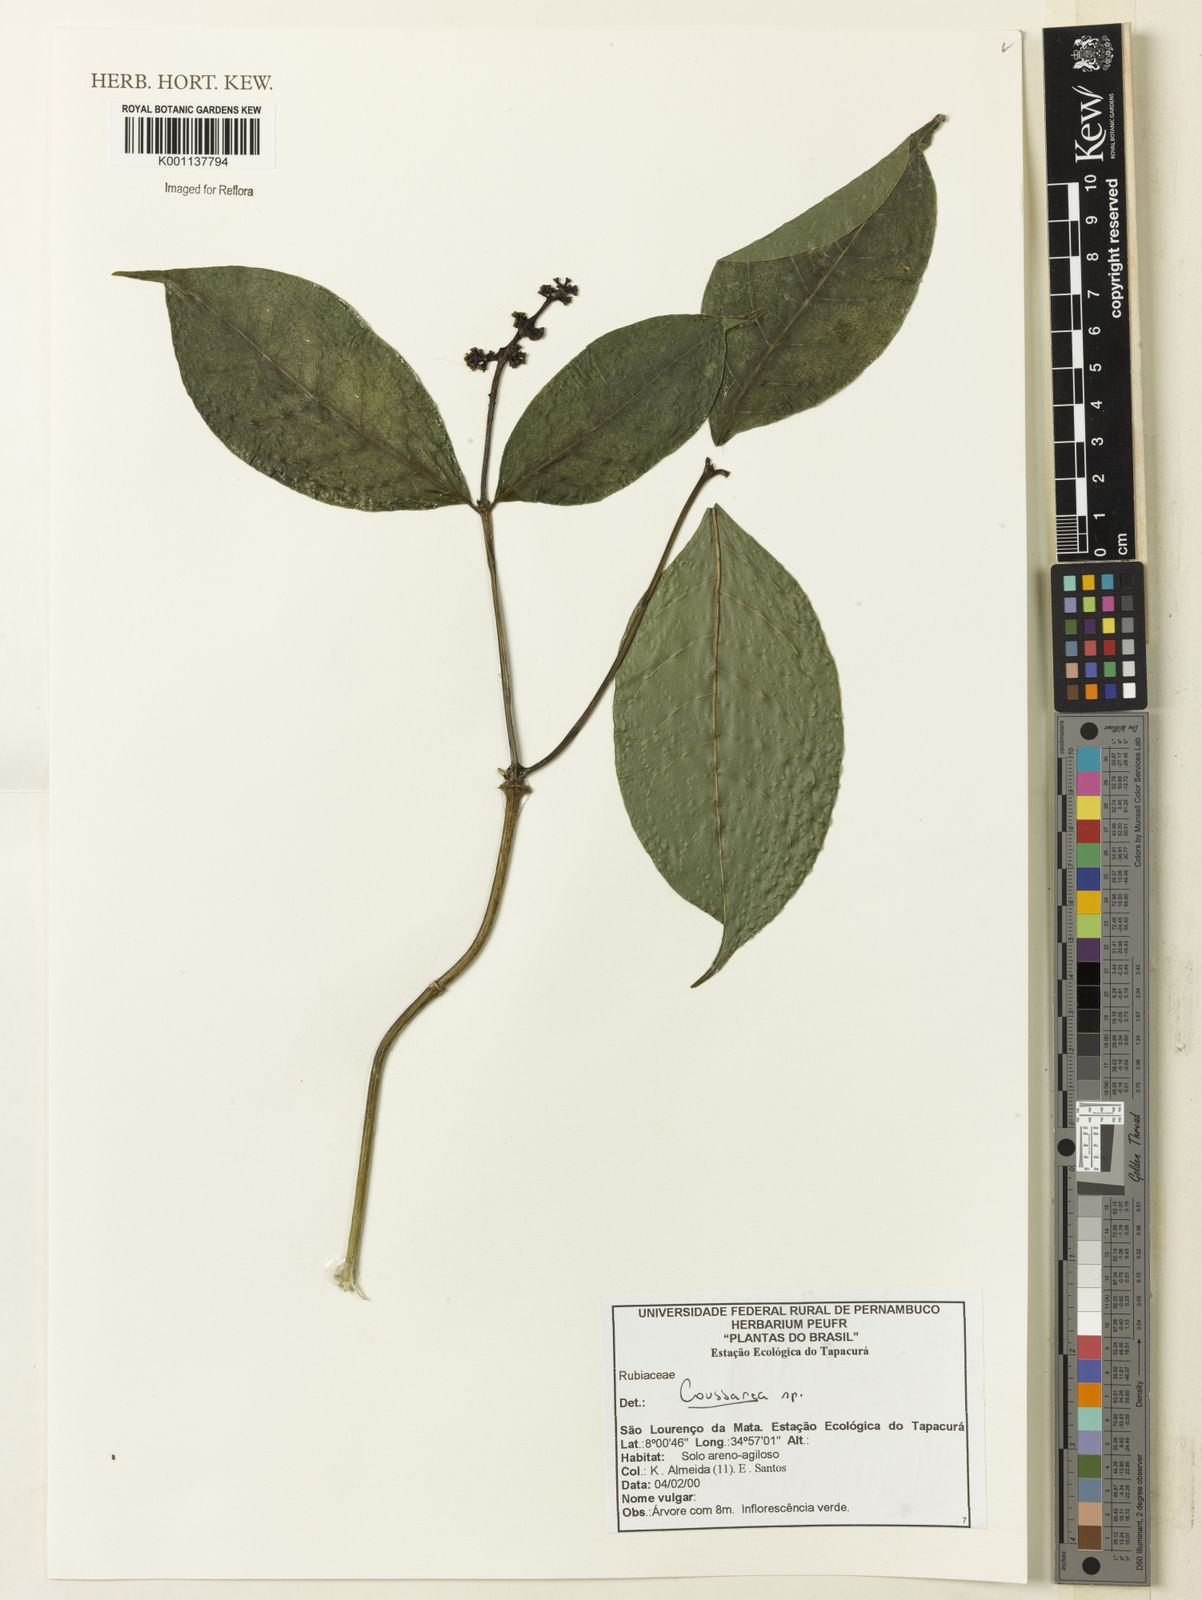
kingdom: Plantae
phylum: Tracheophyta
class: Magnoliopsida
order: Gentianales
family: Rubiaceae
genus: Coussarea
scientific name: Coussarea
